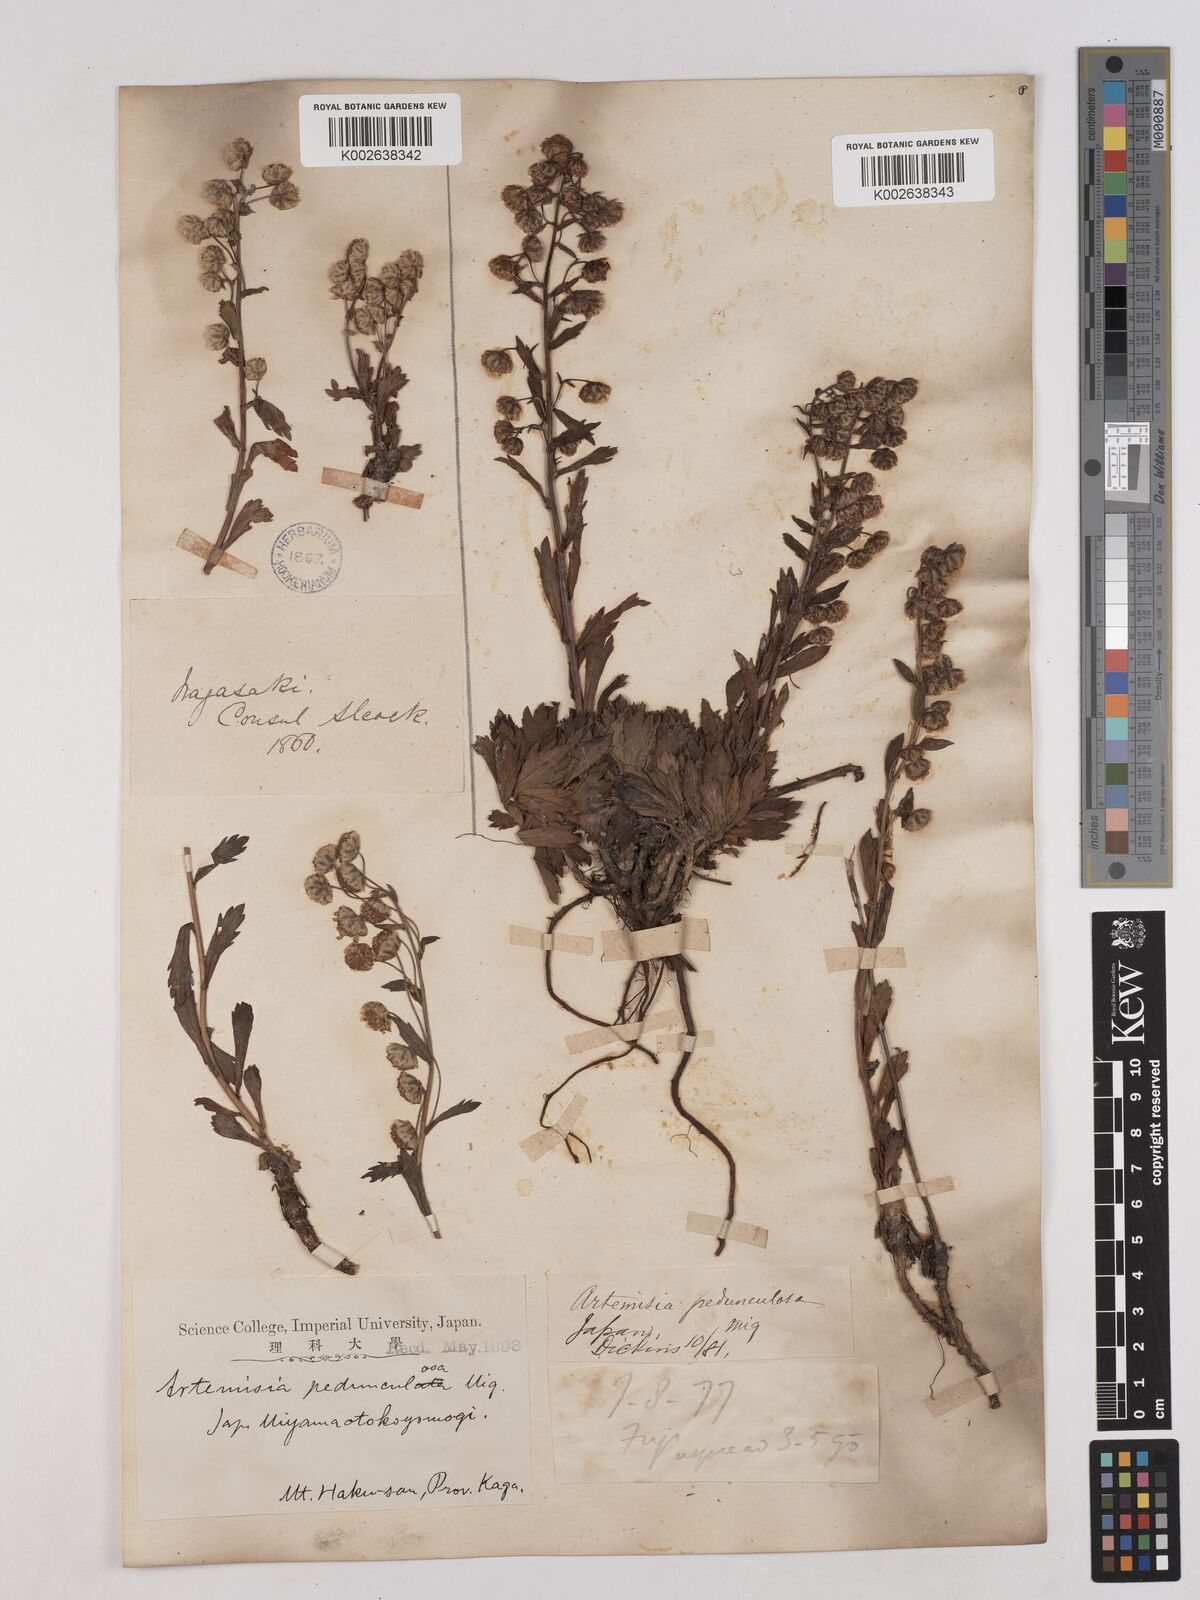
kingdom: Plantae
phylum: Tracheophyta
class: Magnoliopsida
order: Asterales
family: Asteraceae
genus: Artemisia
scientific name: Artemisia pedunculosa
